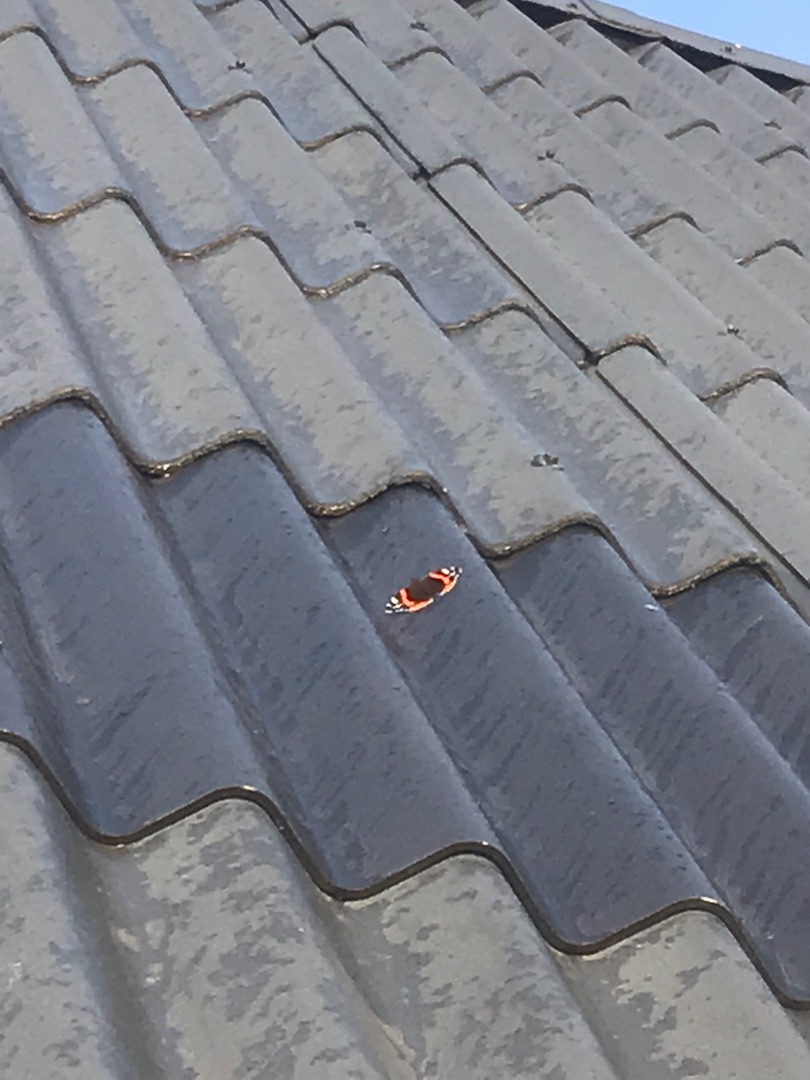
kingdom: Animalia
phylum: Arthropoda
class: Insecta
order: Lepidoptera
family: Nymphalidae
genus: Vanessa
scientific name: Vanessa atalanta
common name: Admiral
